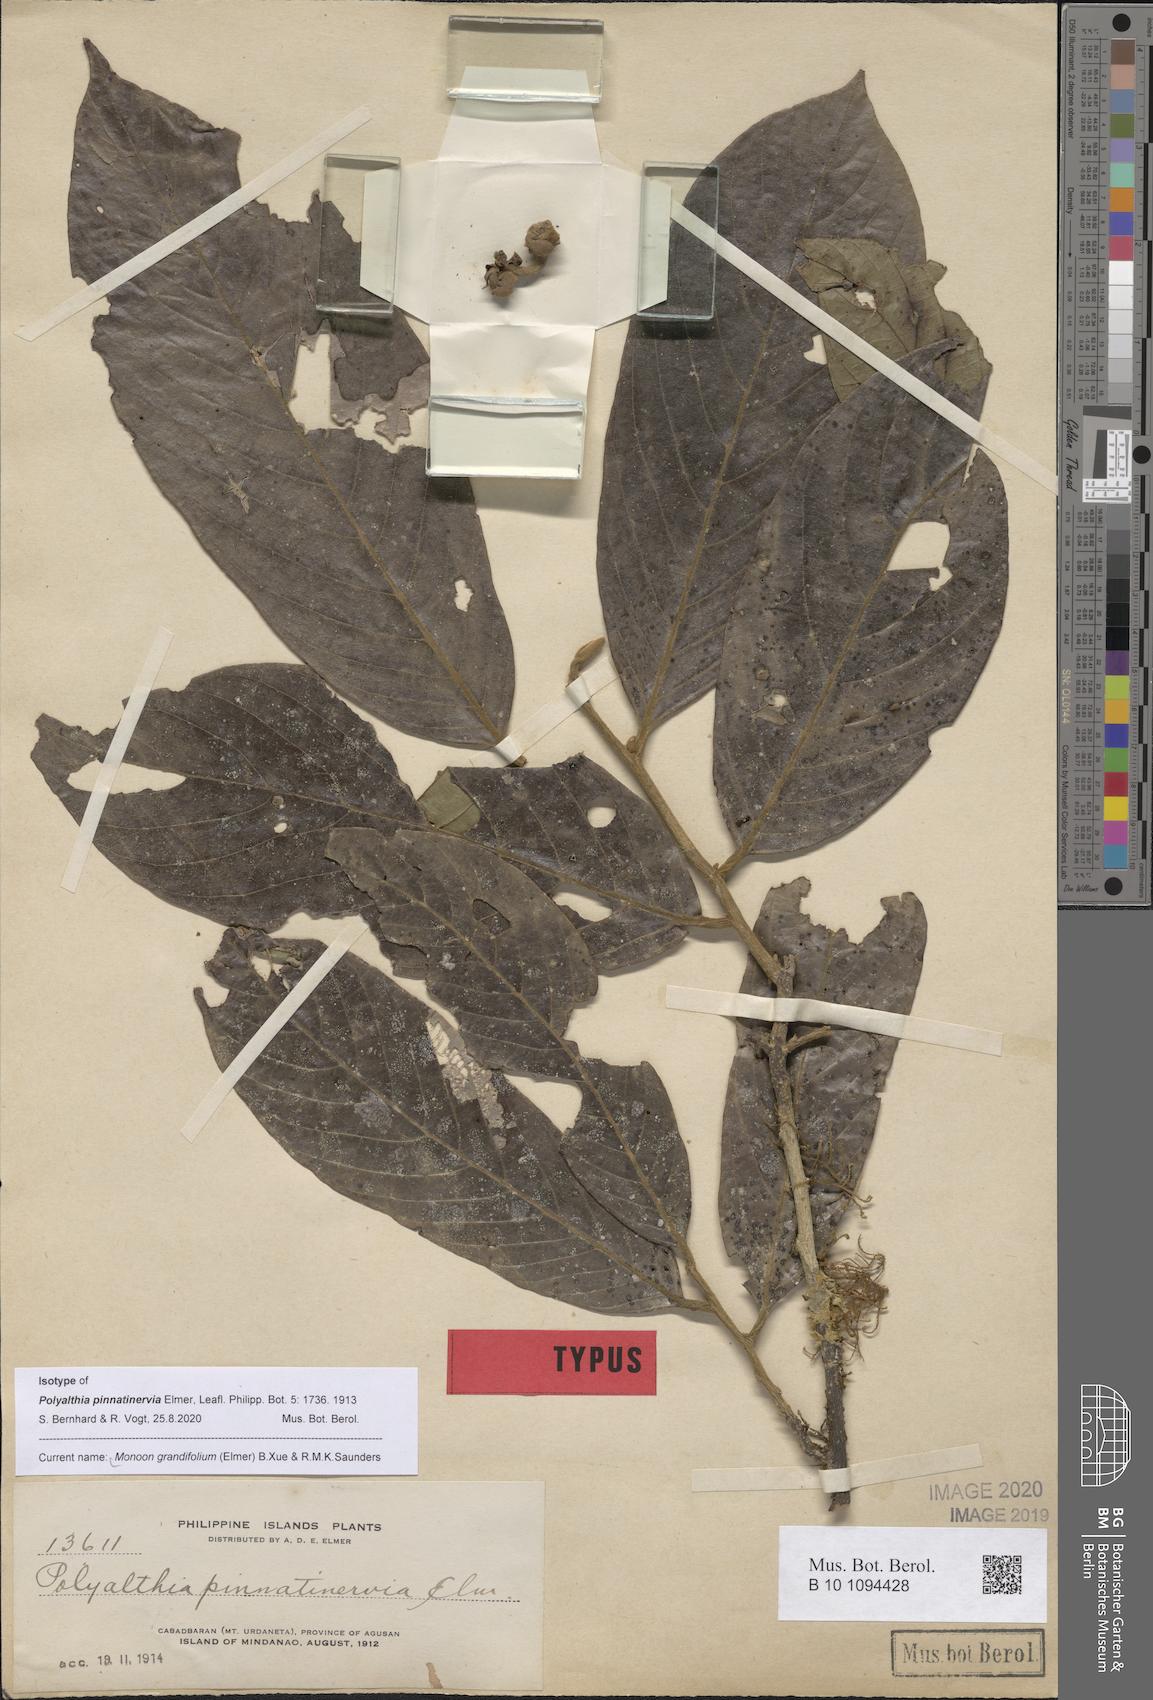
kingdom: Plantae
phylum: Tracheophyta
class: Magnoliopsida
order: Magnoliales
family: Annonaceae
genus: Enicosanthum
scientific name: Enicosanthum grandifolium
